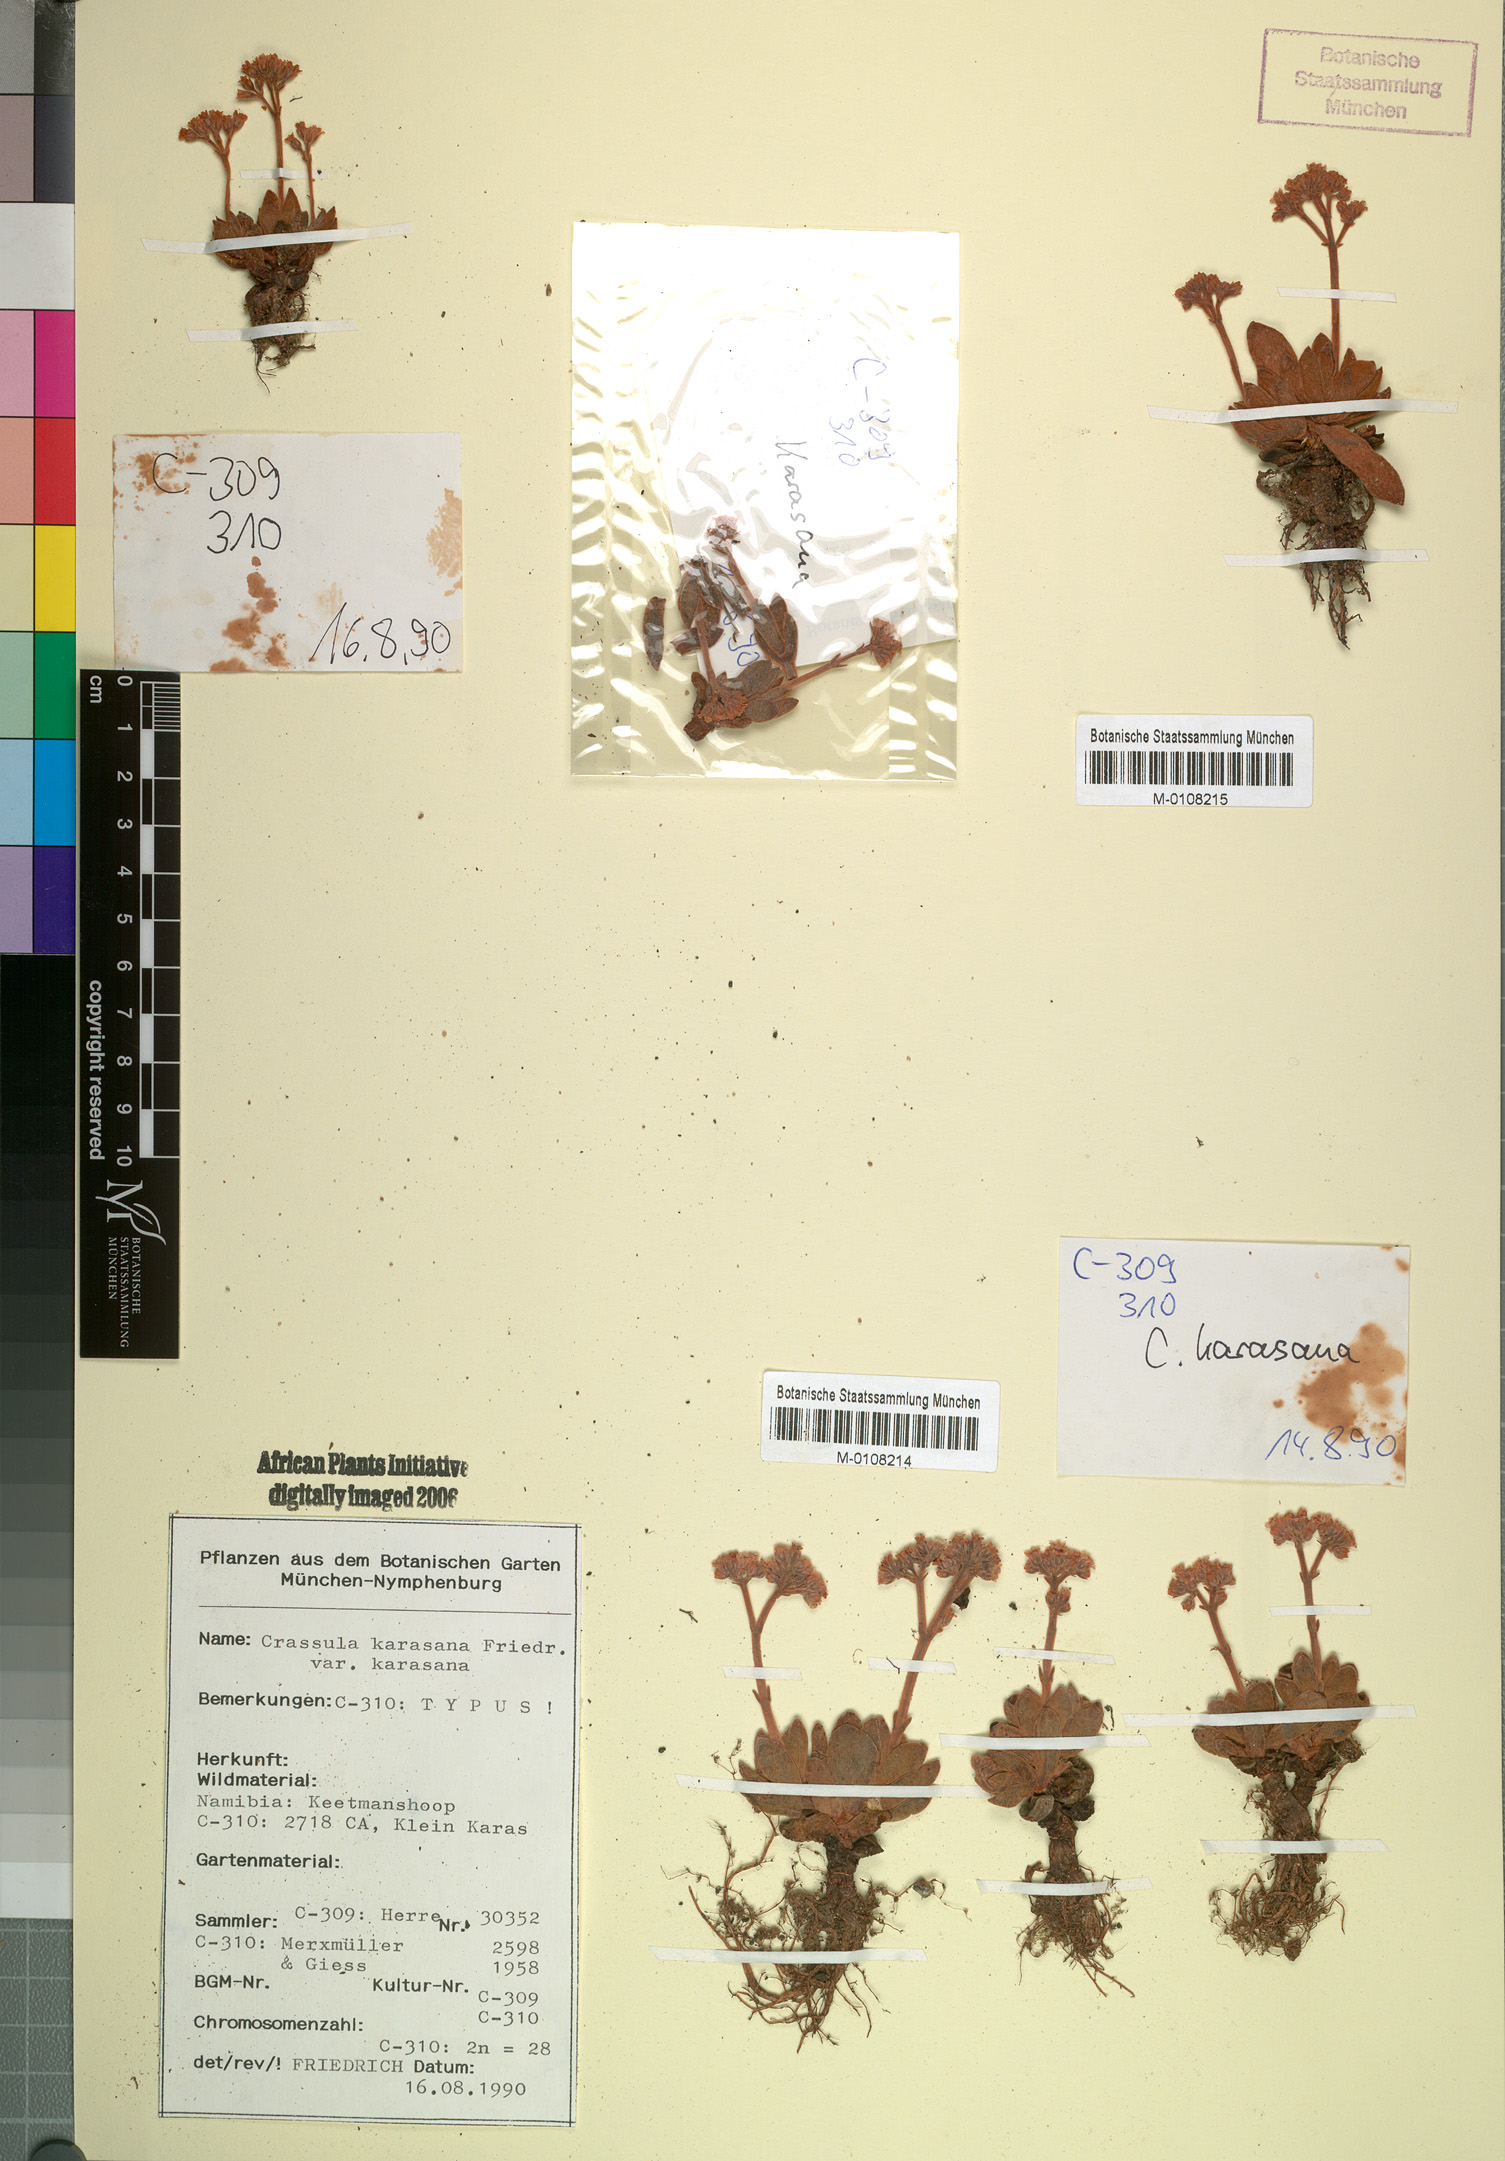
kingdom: Plantae
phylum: Tracheophyta
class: Magnoliopsida
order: Saxifragales
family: Crassulaceae
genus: Crassula
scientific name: Crassula ausensis
